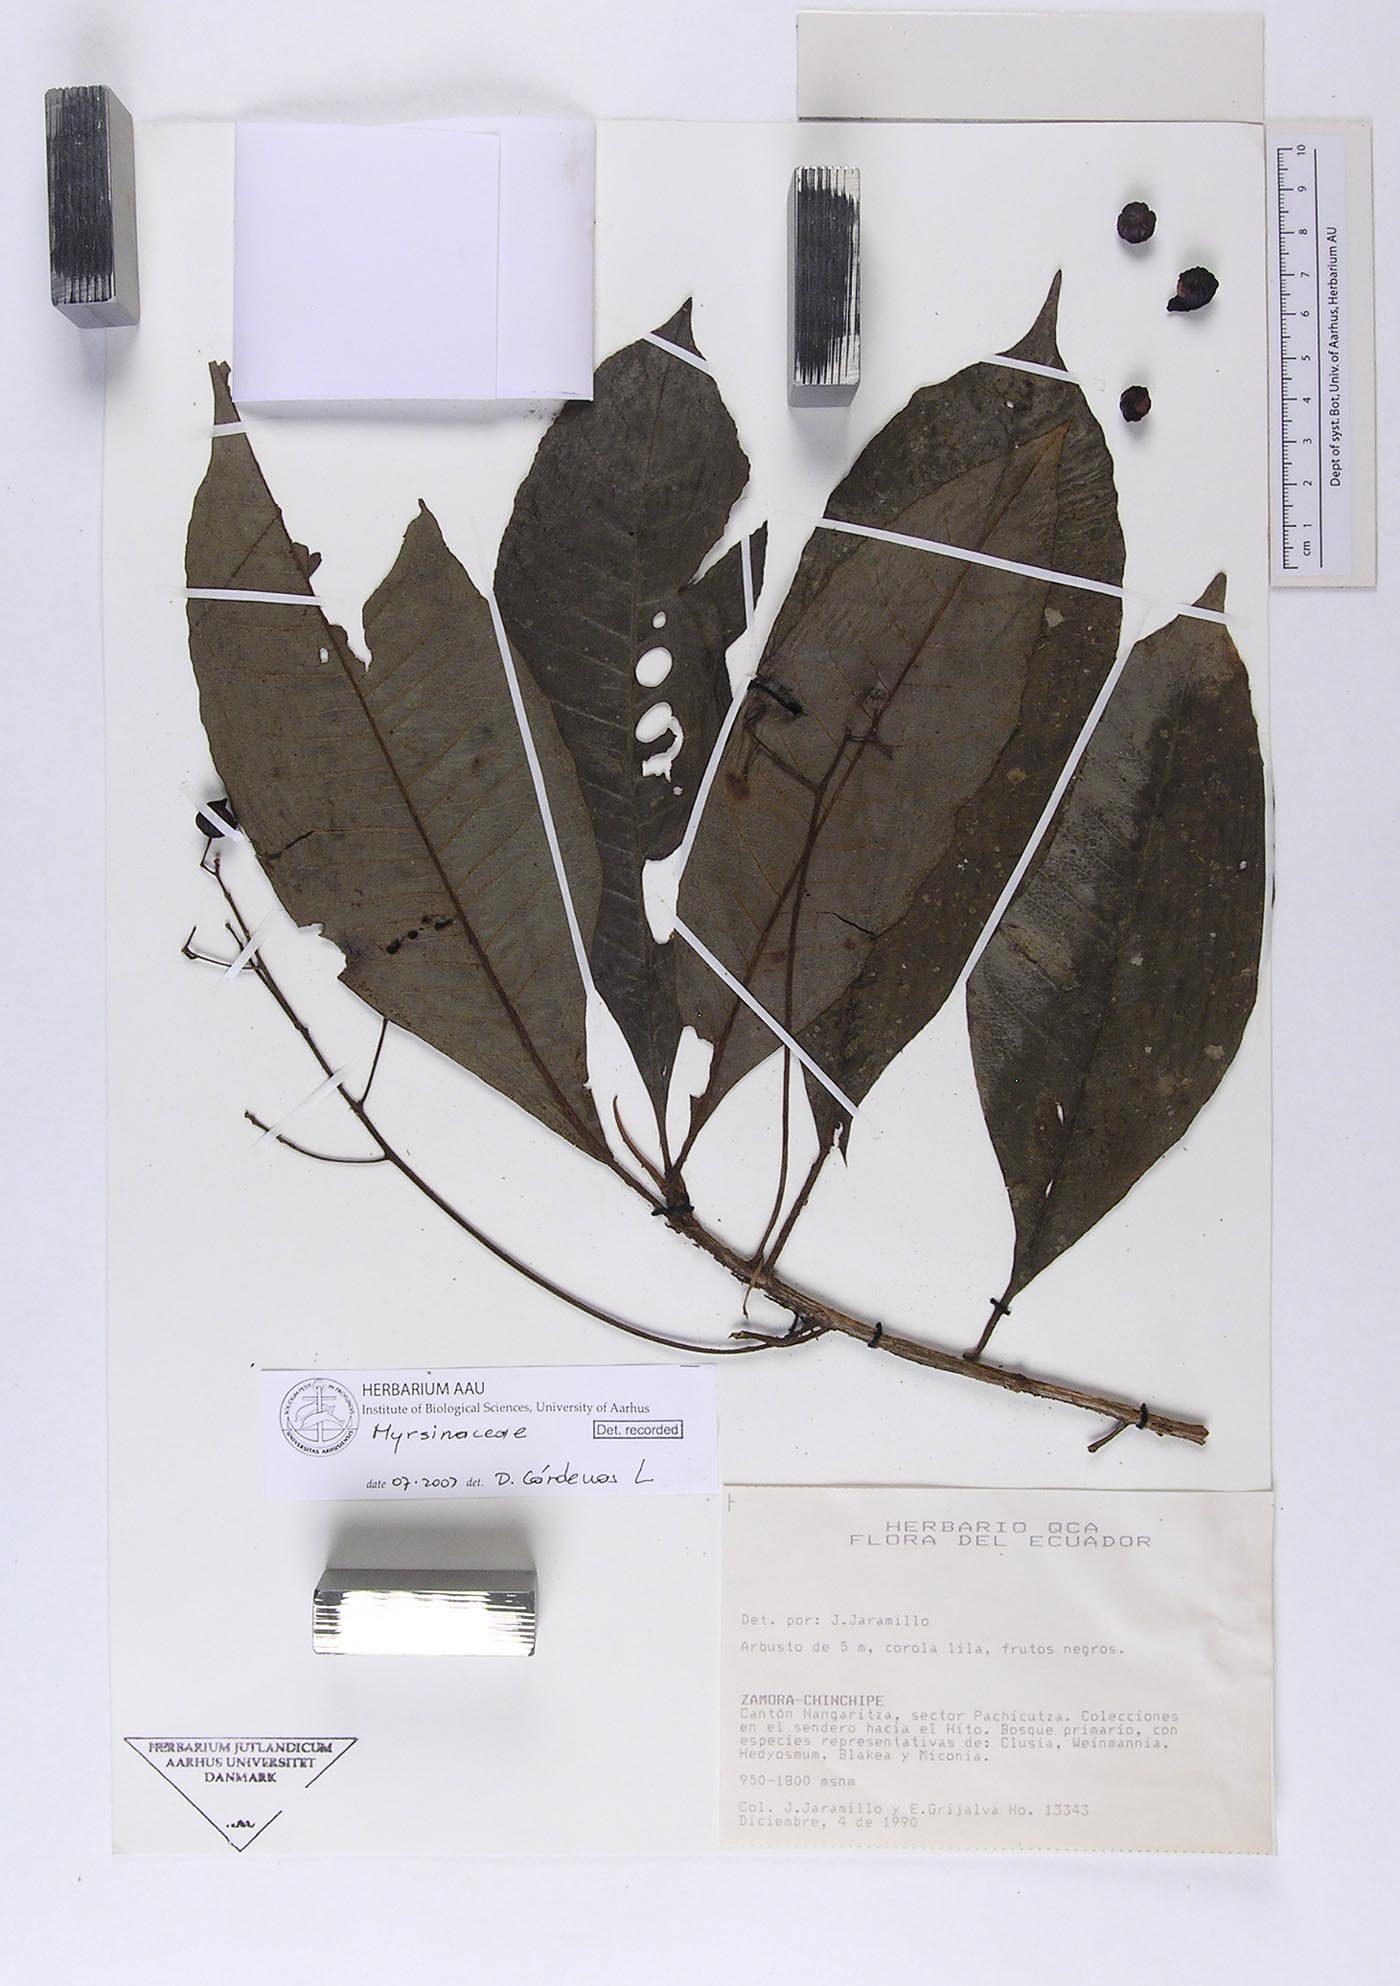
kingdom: Plantae
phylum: Tracheophyta
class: Magnoliopsida
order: Ericales
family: Primulaceae
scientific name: Primulaceae
